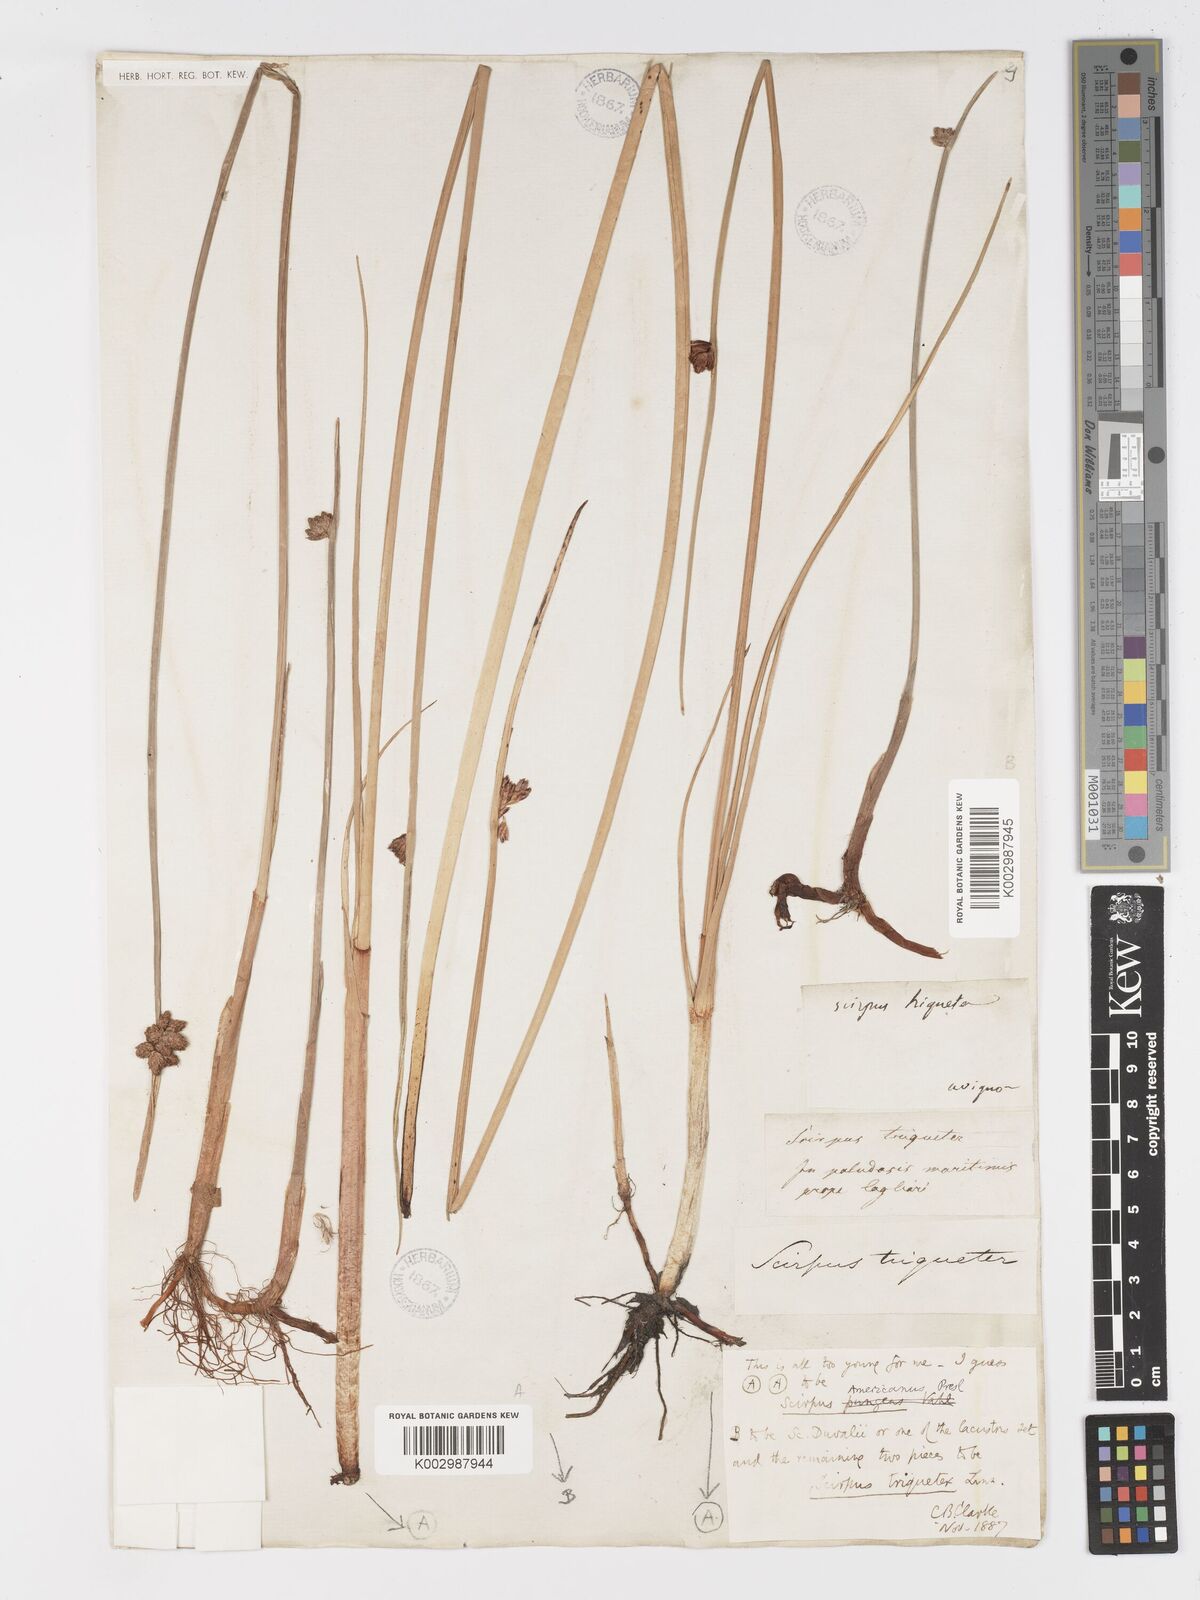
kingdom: Plantae
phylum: Tracheophyta
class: Liliopsida
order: Poales
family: Cyperaceae
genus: Schoenoplectus
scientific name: Schoenoplectus triqueter
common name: Triangular club-rush
